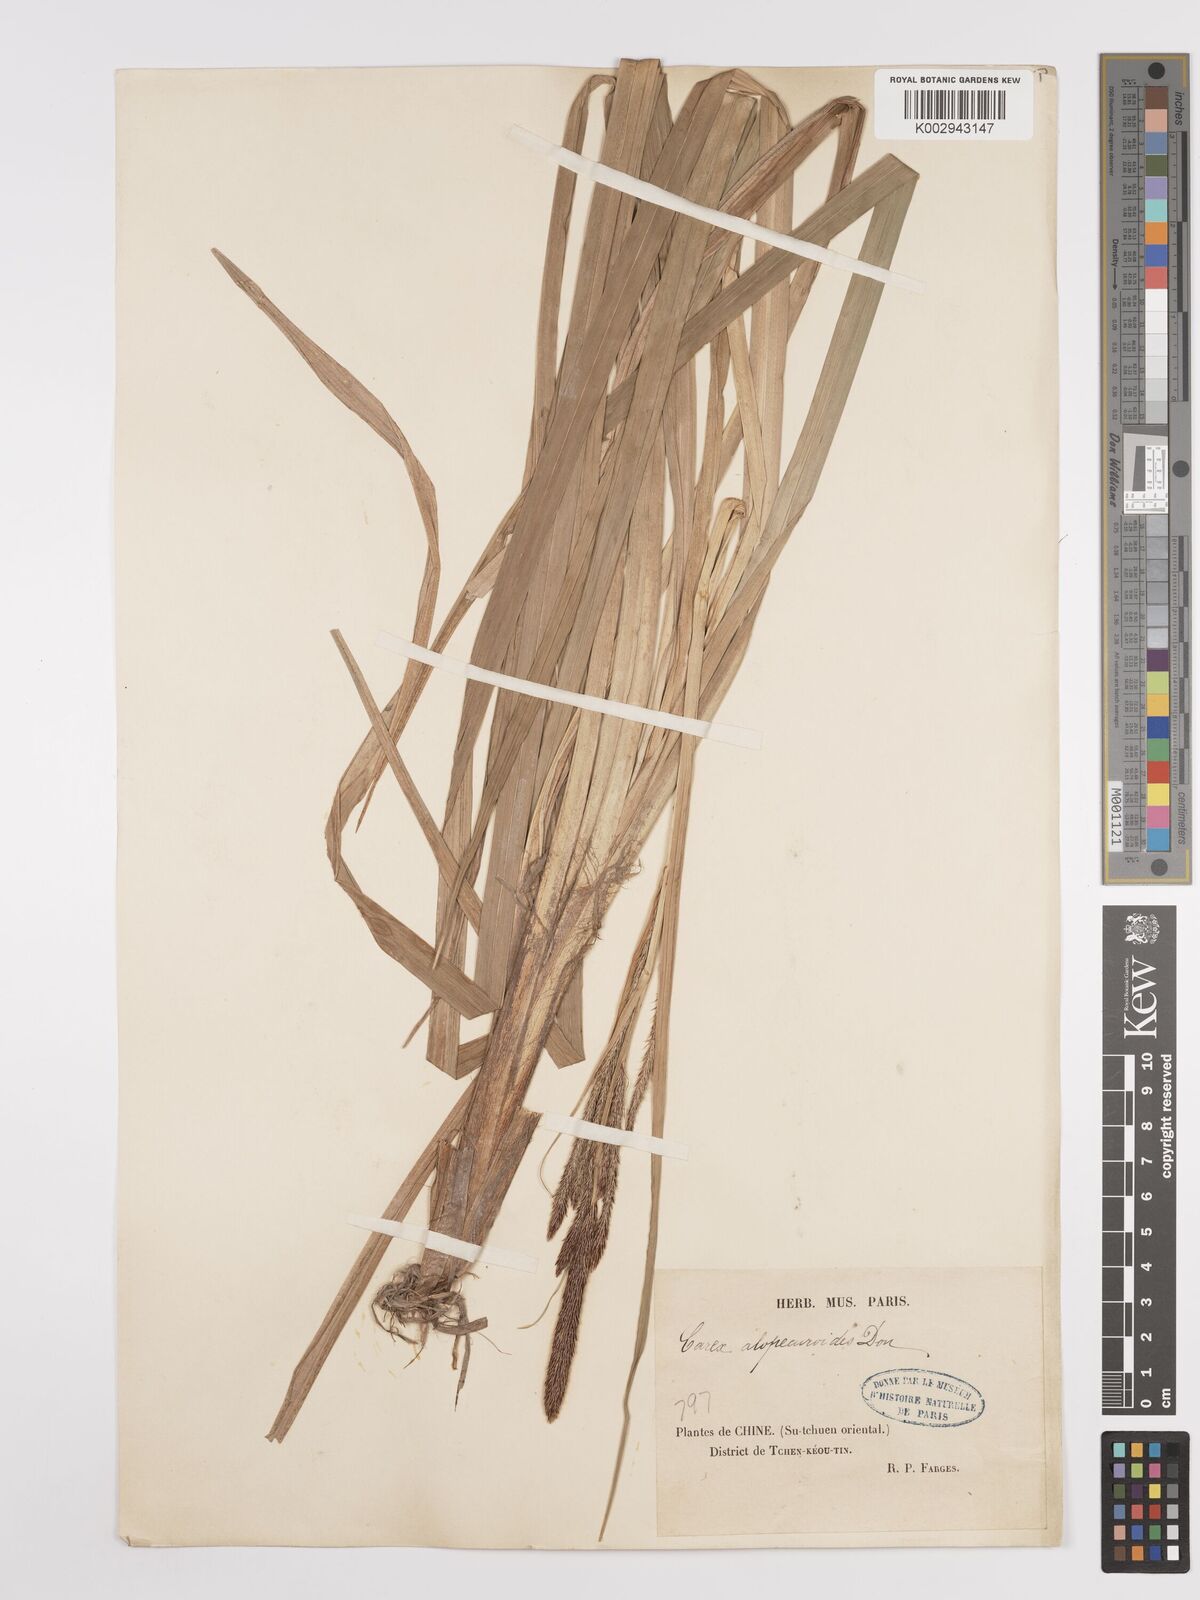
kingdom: Plantae
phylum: Tracheophyta
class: Liliopsida
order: Poales
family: Cyperaceae
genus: Carex
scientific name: Carex
